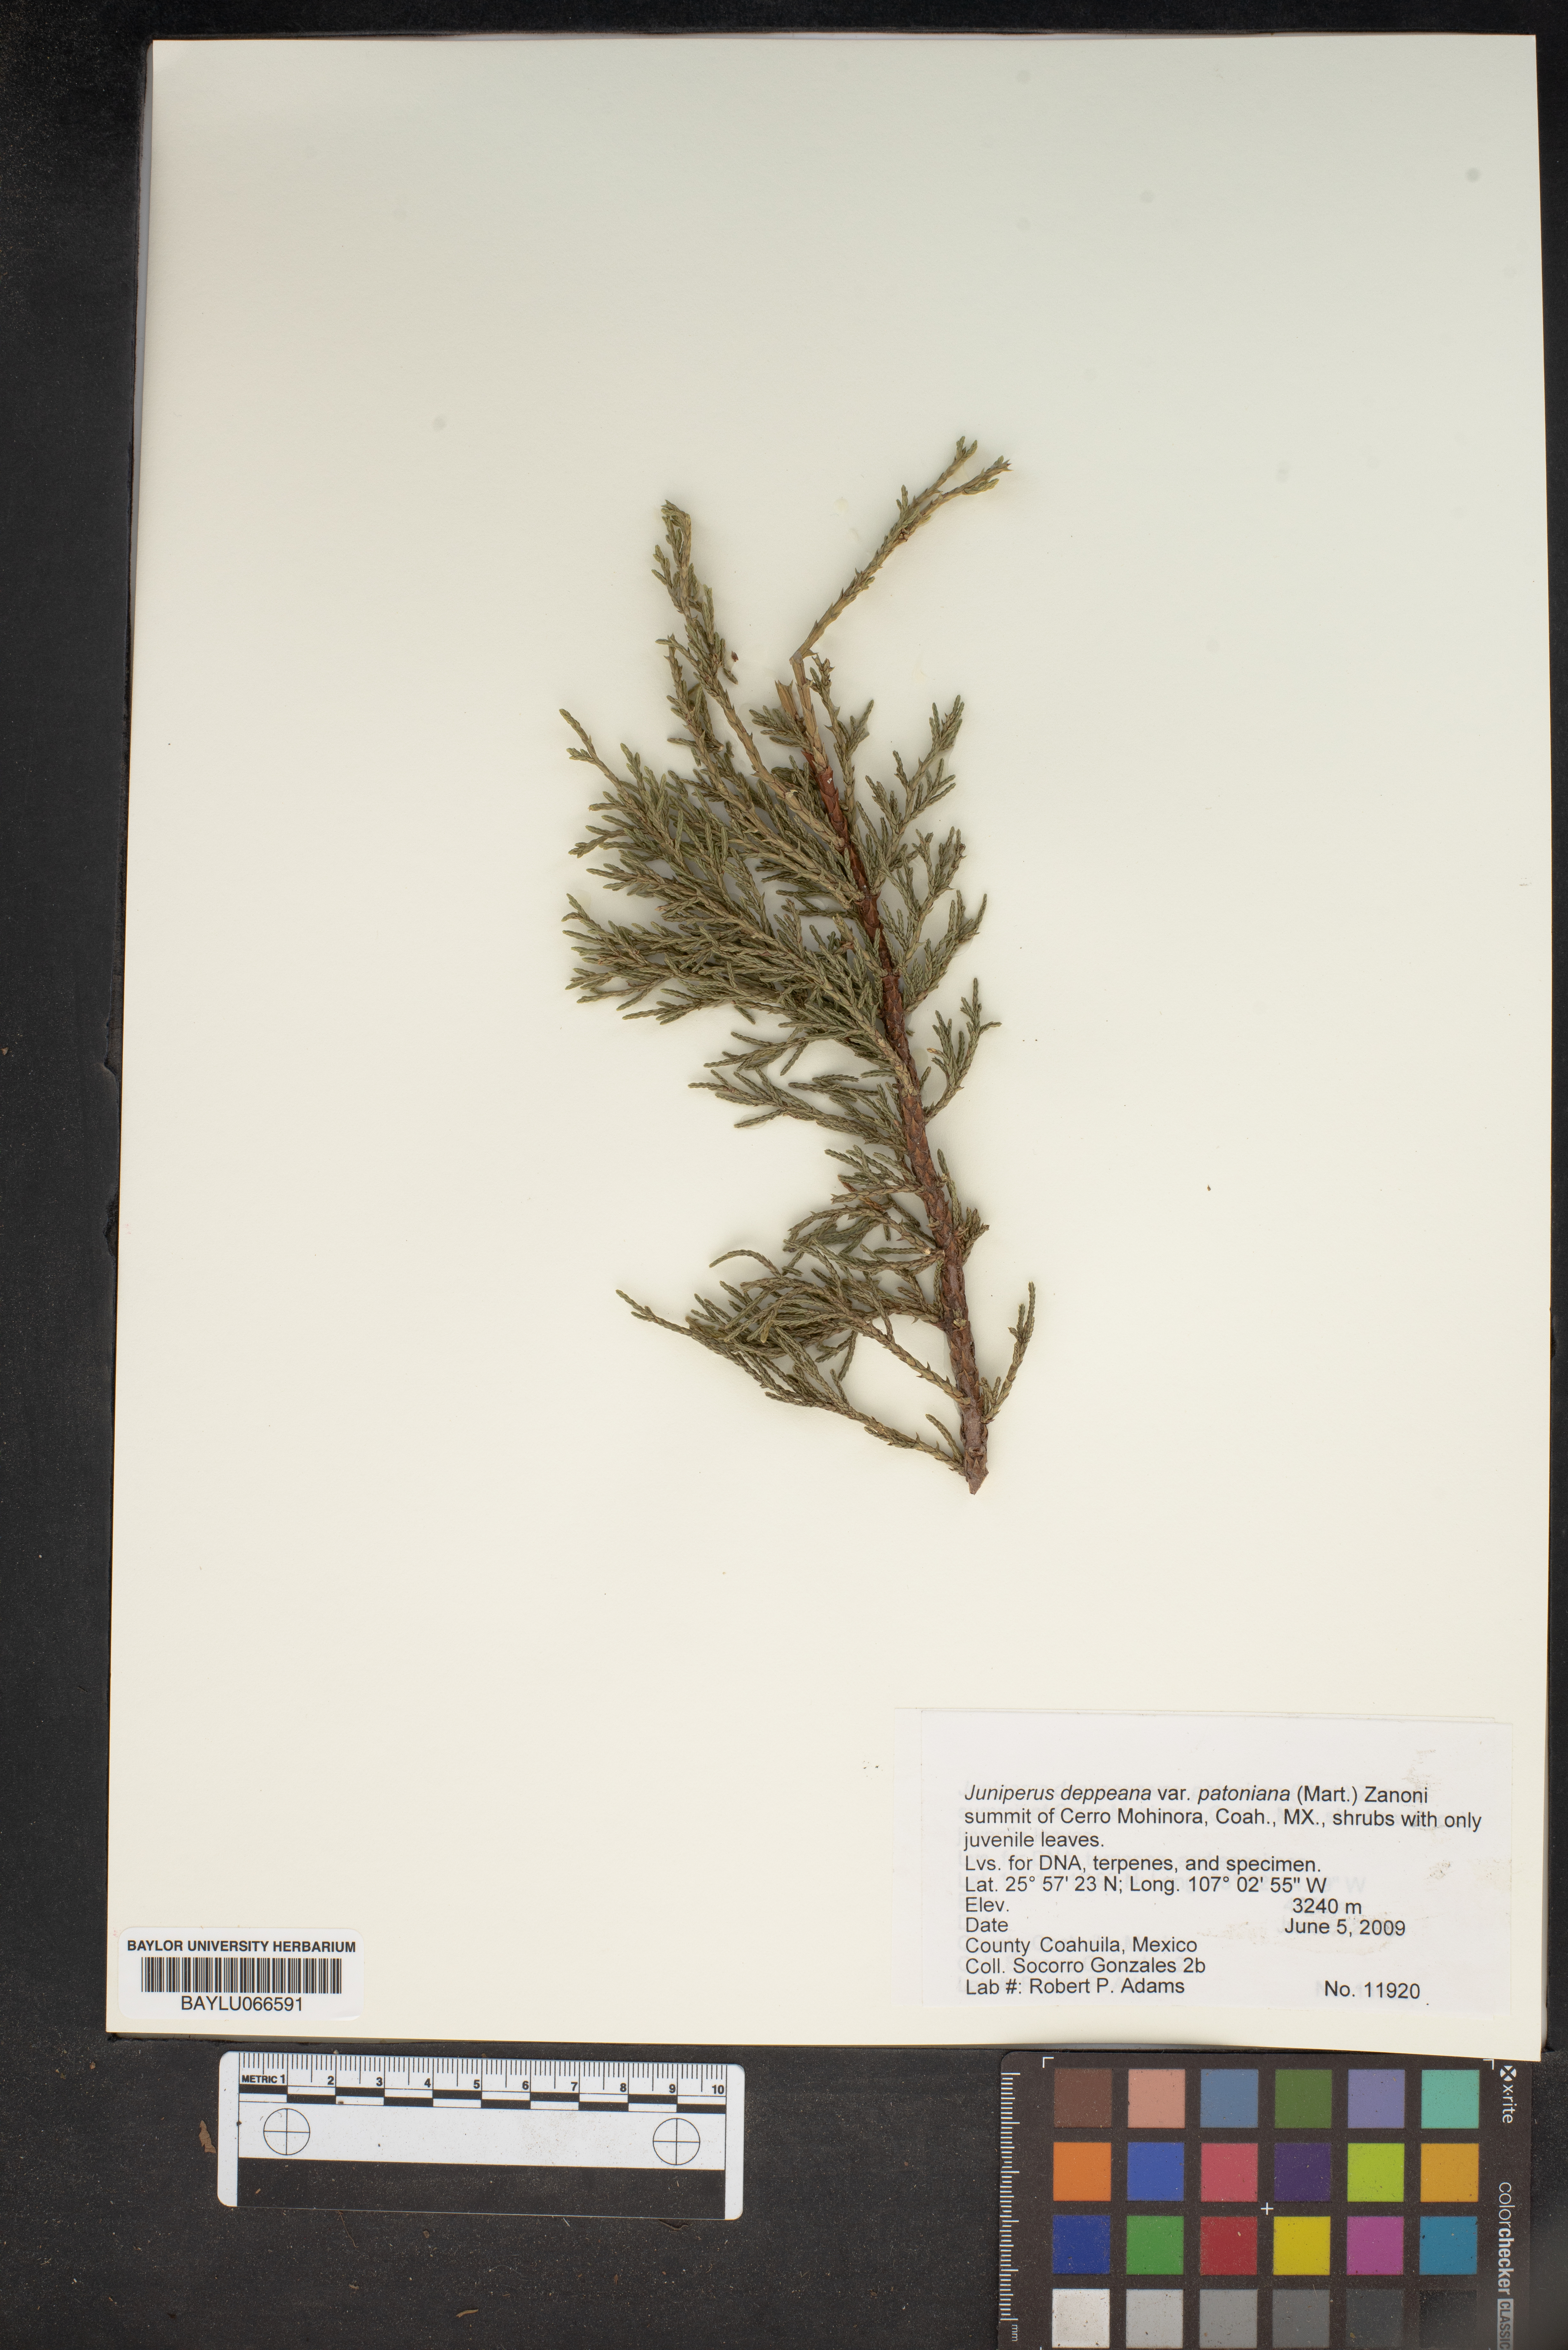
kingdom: Plantae
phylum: Tracheophyta
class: Pinopsida
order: Pinales
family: Cupressaceae
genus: Juniperus
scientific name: Juniperus deppeana
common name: Alligator juniper
